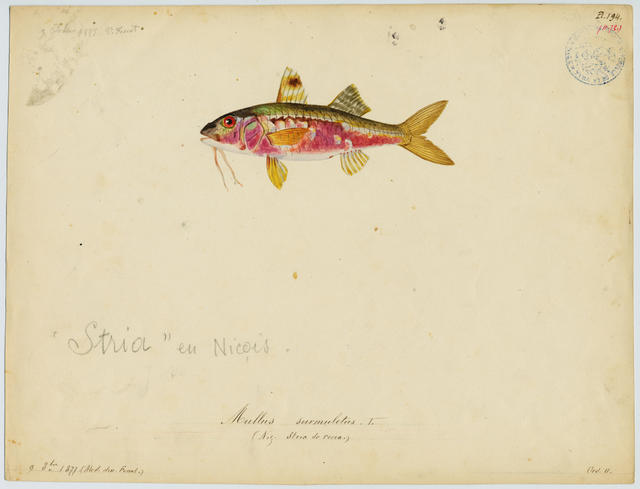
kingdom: Animalia
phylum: Chordata
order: Perciformes
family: Mullidae
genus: Mullus
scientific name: Mullus surmuletus
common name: Red mullet
